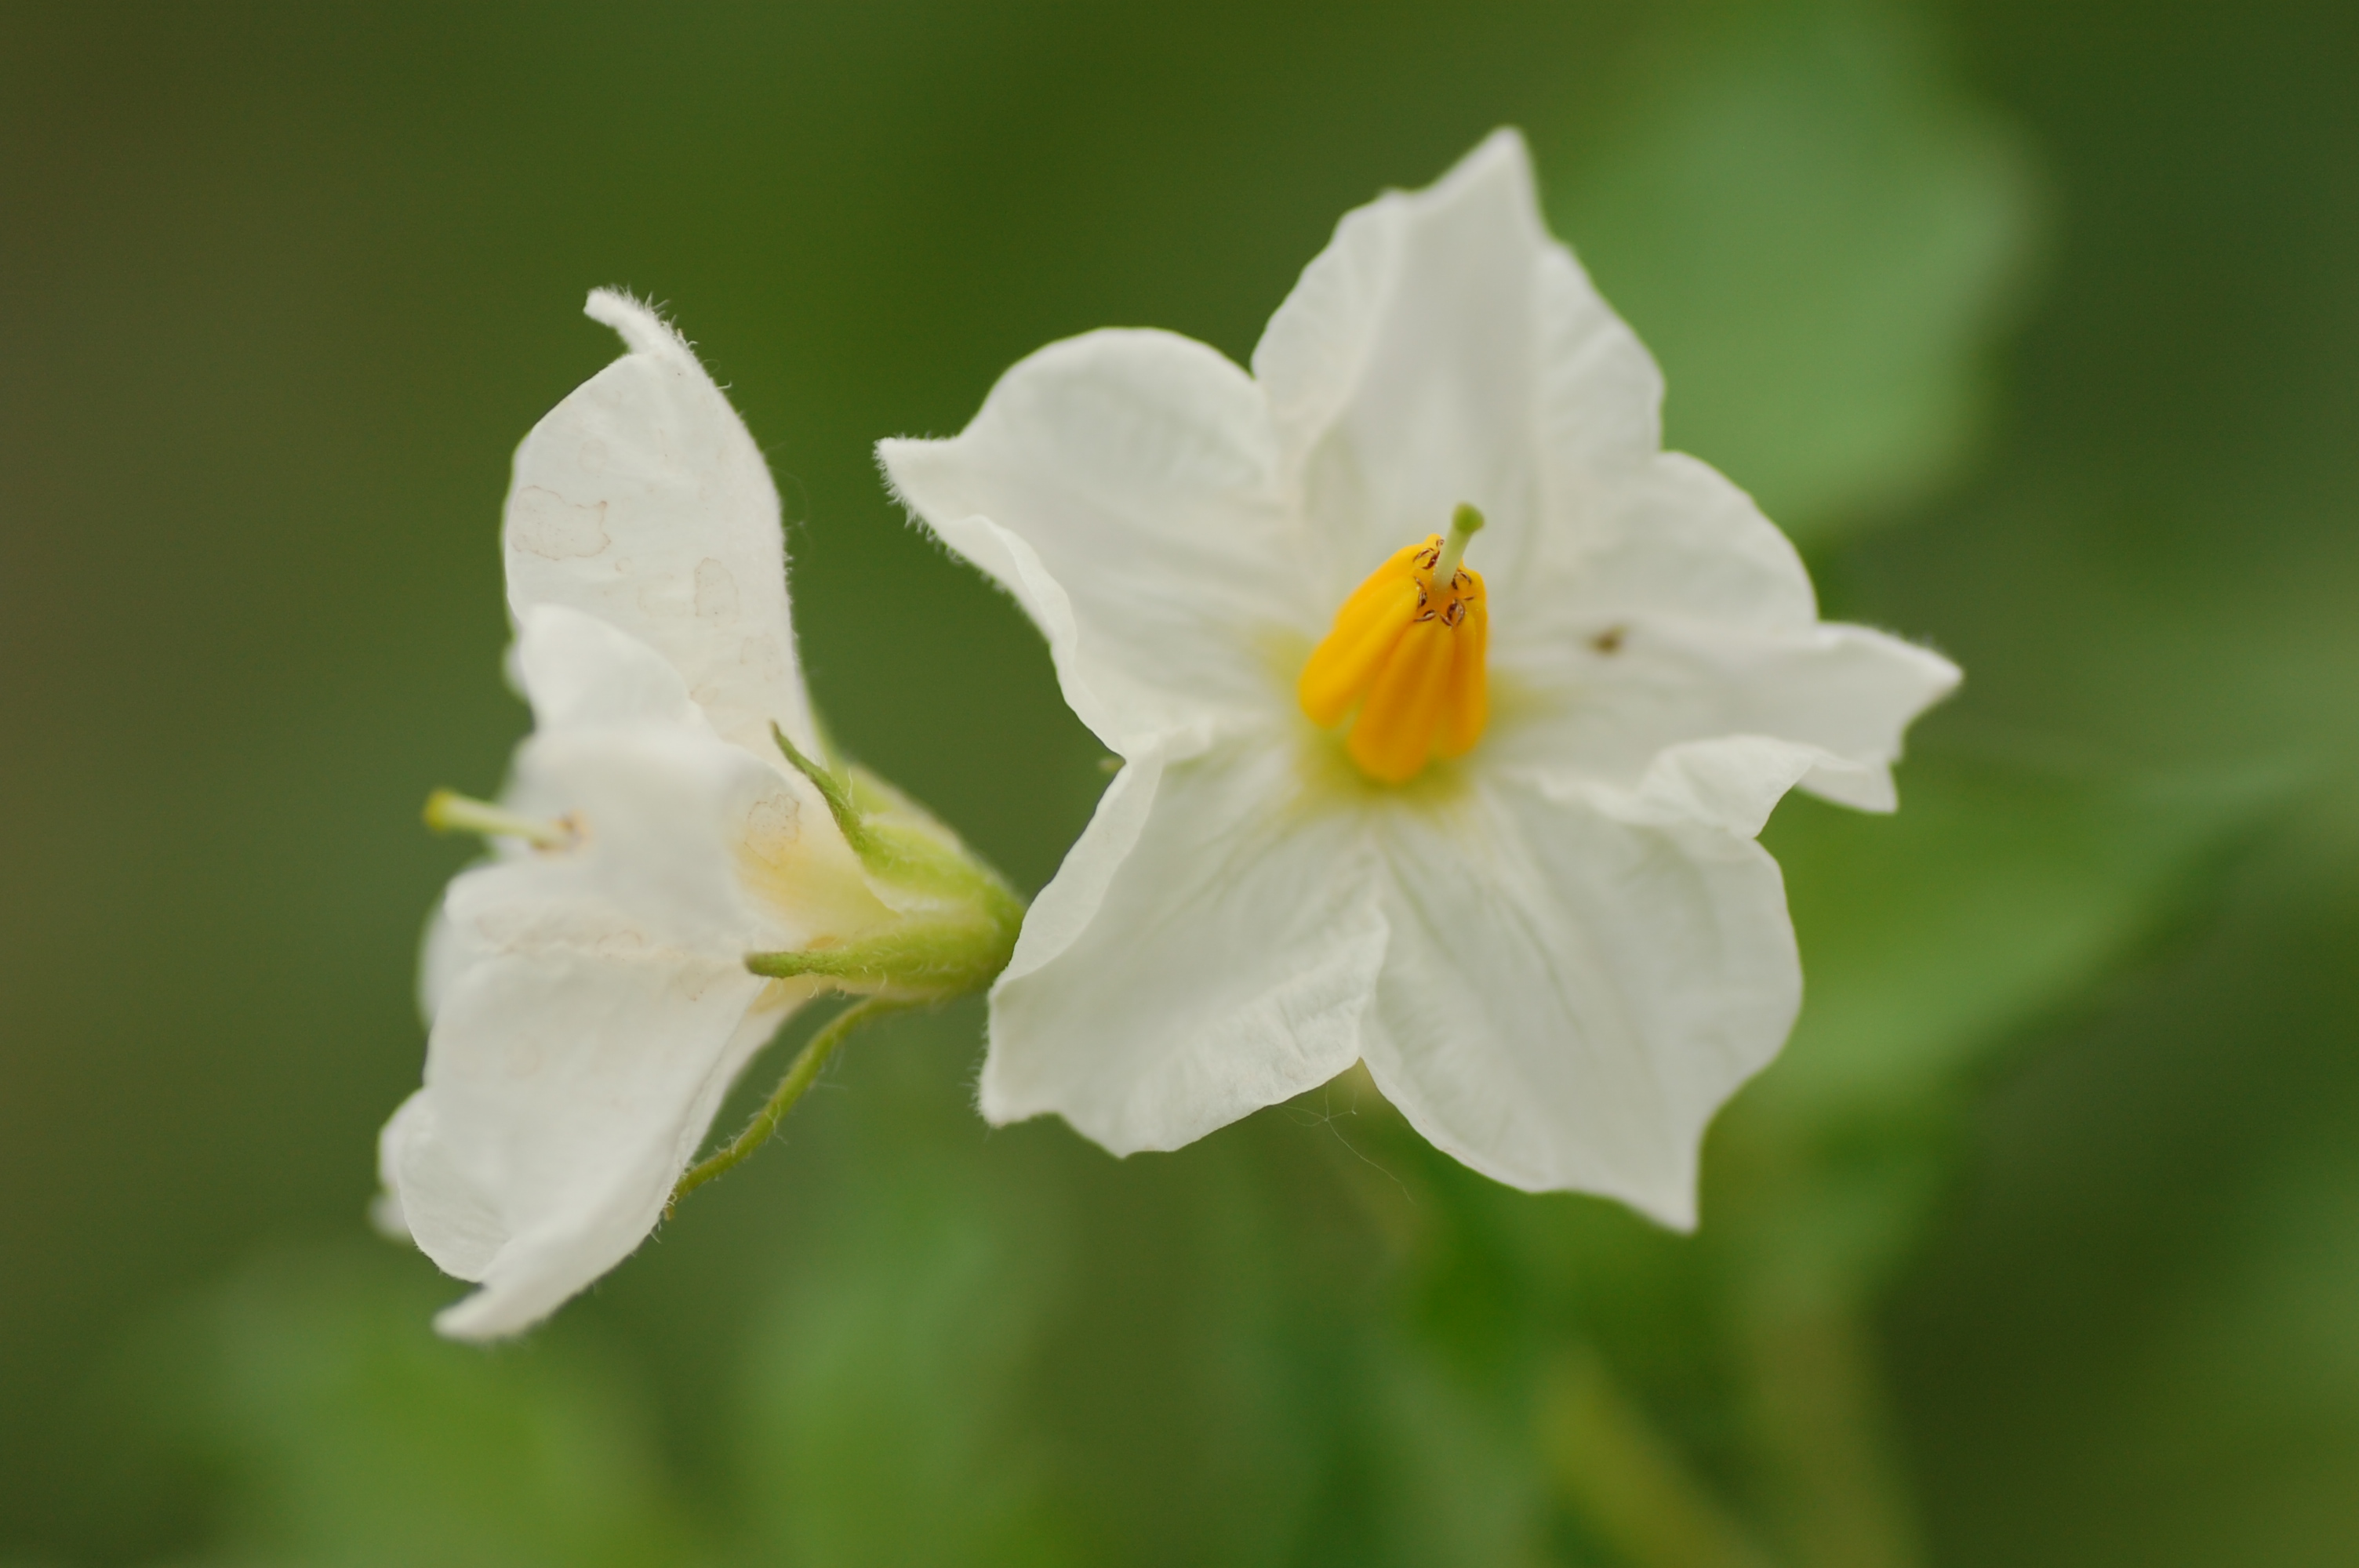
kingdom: Plantae
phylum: Tracheophyta
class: Magnoliopsida
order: Solanales
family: Solanaceae
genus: Solanum
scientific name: Solanum tuberosum
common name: Potato
